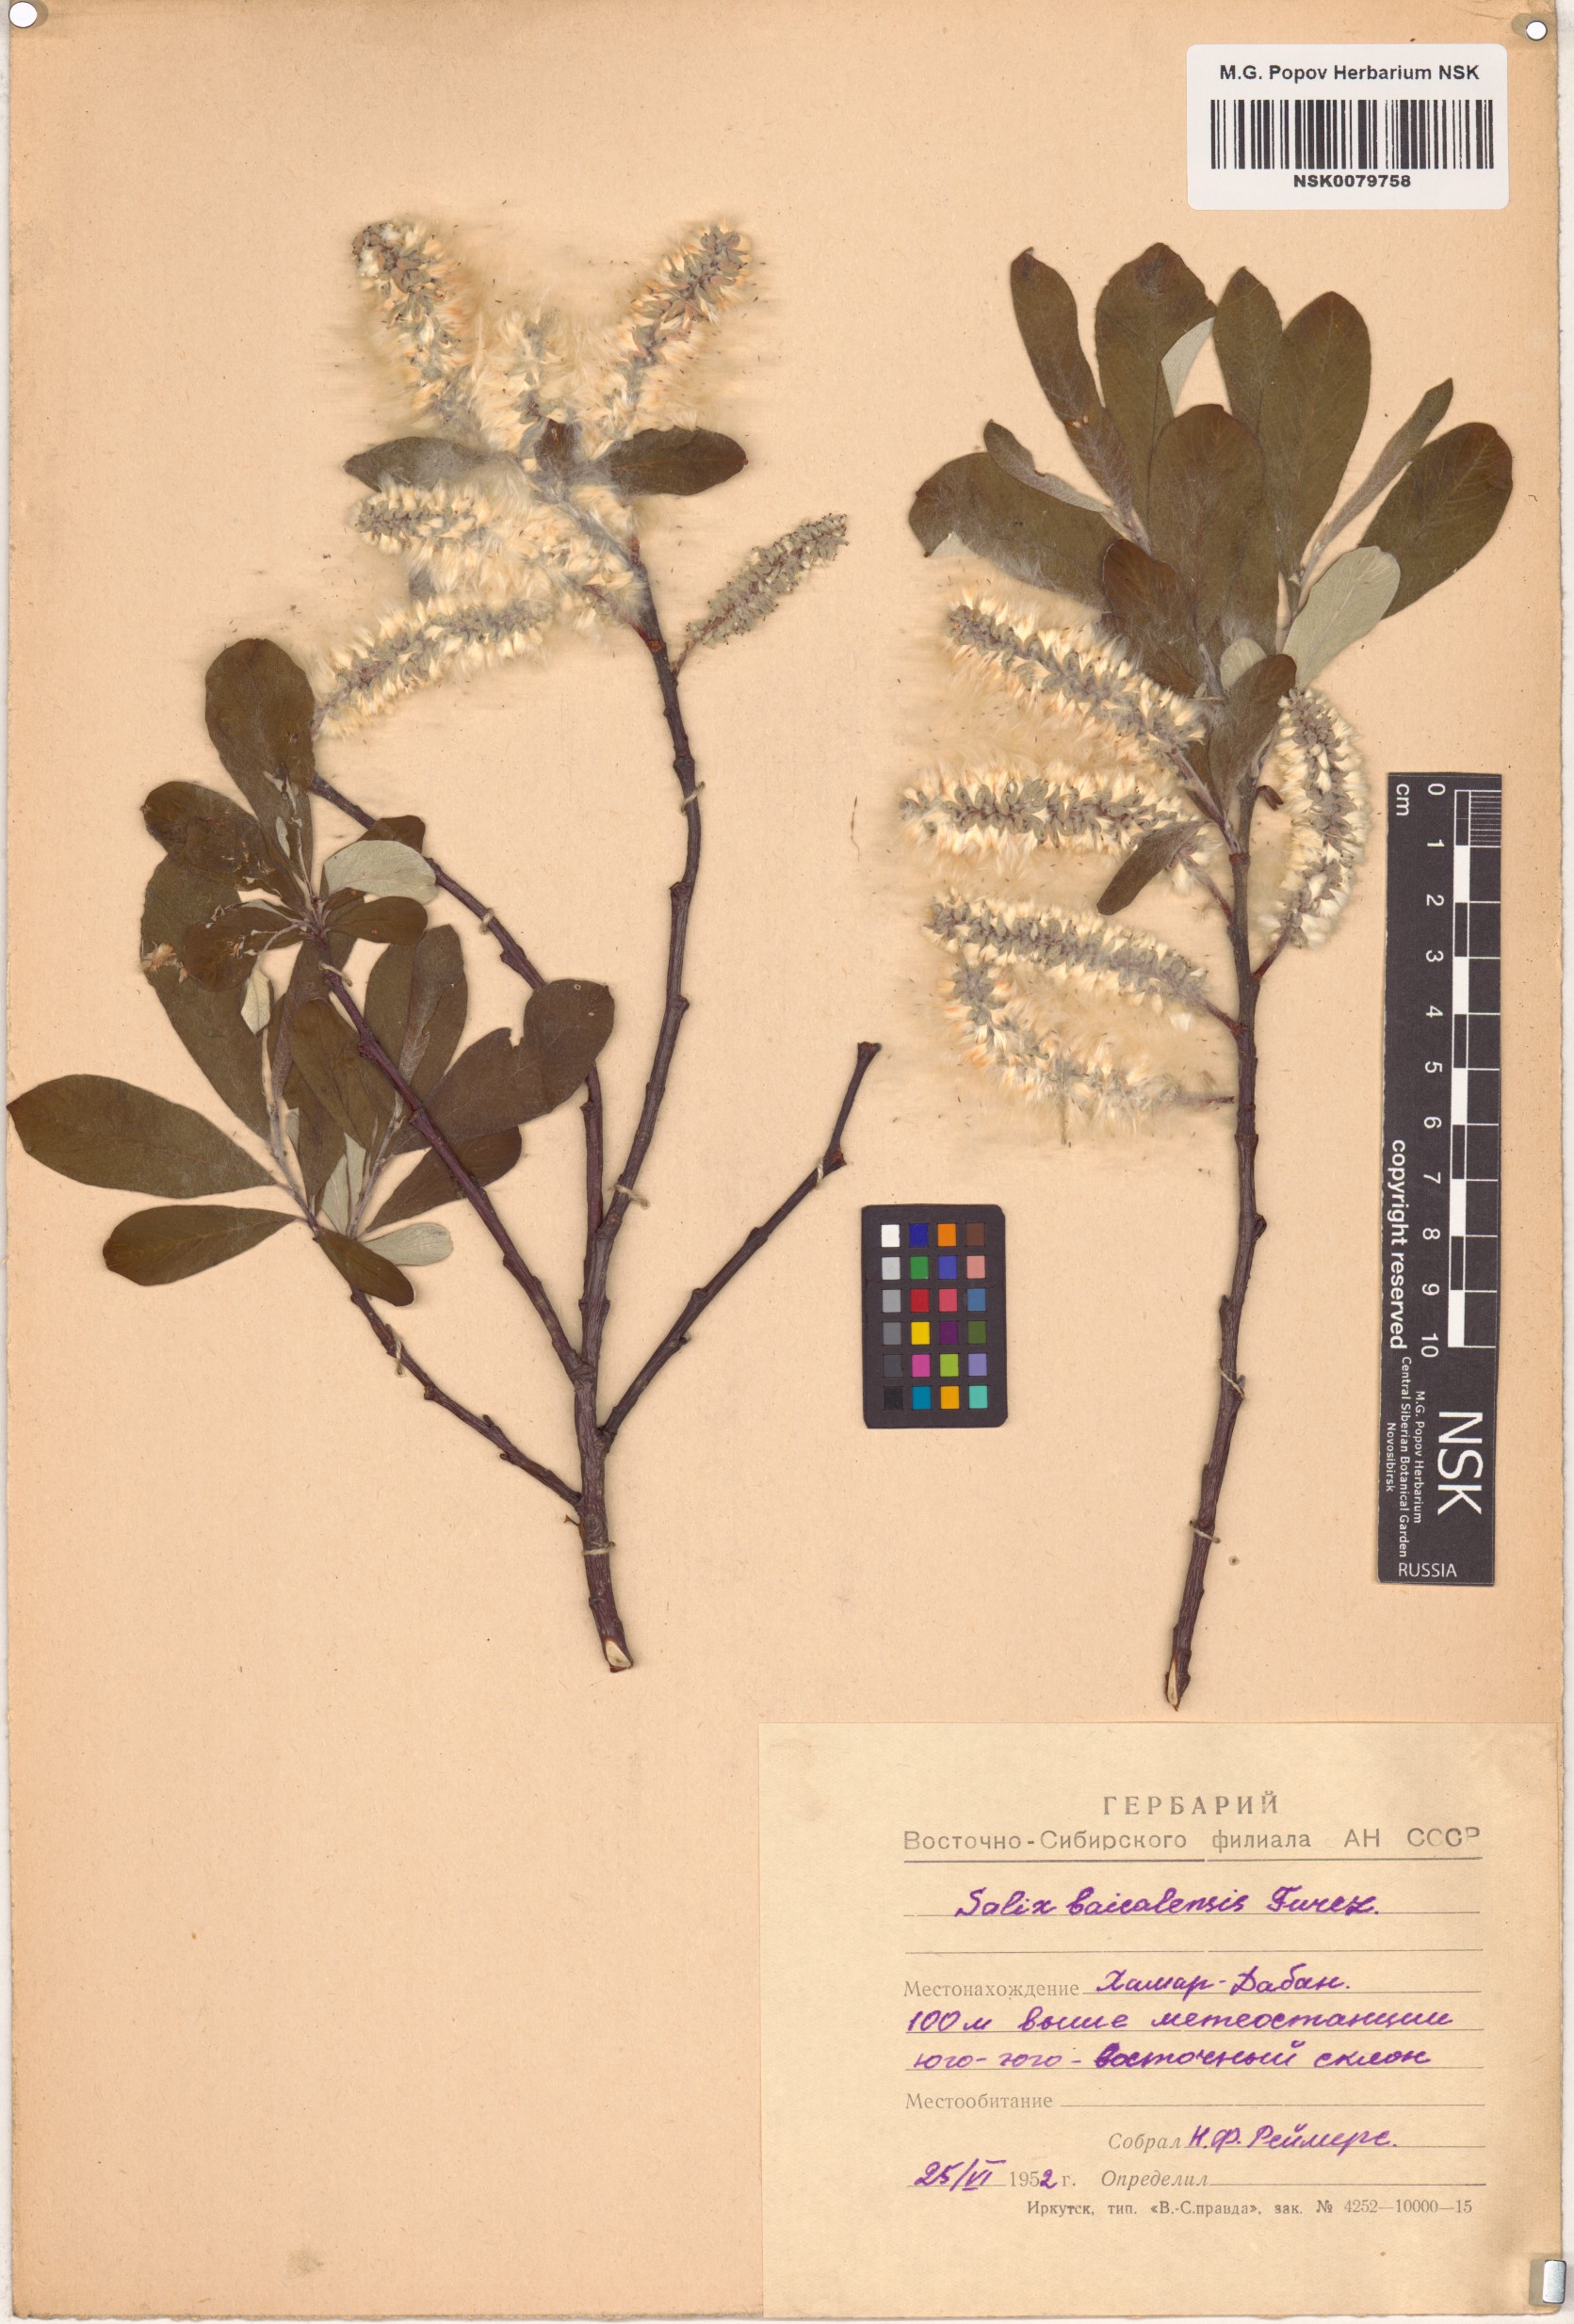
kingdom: Plantae
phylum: Tracheophyta
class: Magnoliopsida
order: Malpighiales
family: Salicaceae
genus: Salix
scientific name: Salix krylovii
